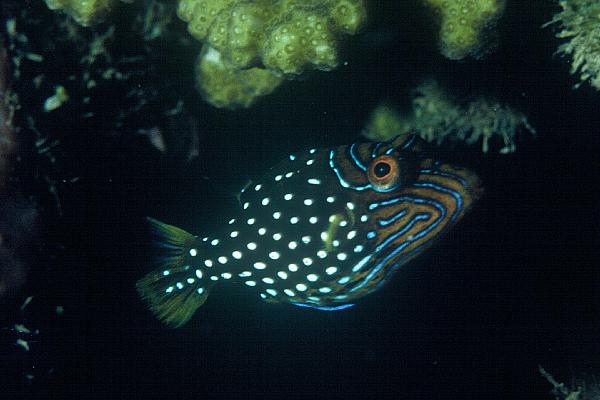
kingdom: Animalia
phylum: Chordata
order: Tetraodontiformes
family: Tetraodontidae
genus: Canthigaster
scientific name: Canthigaster amboinensis
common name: Ambon pufferfish
